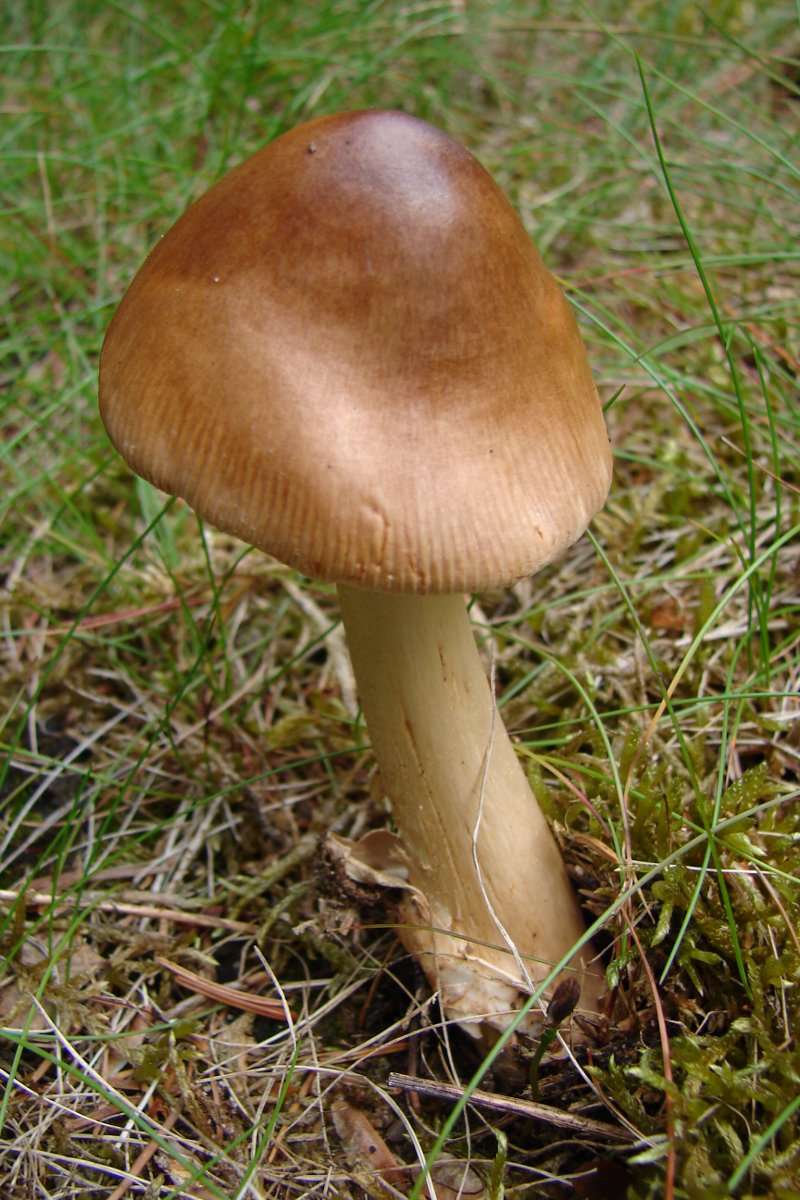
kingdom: Fungi
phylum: Basidiomycota
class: Agaricomycetes
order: Agaricales
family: Amanitaceae
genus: Amanita
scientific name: Amanita fulva
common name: brun kam-fluesvamp
